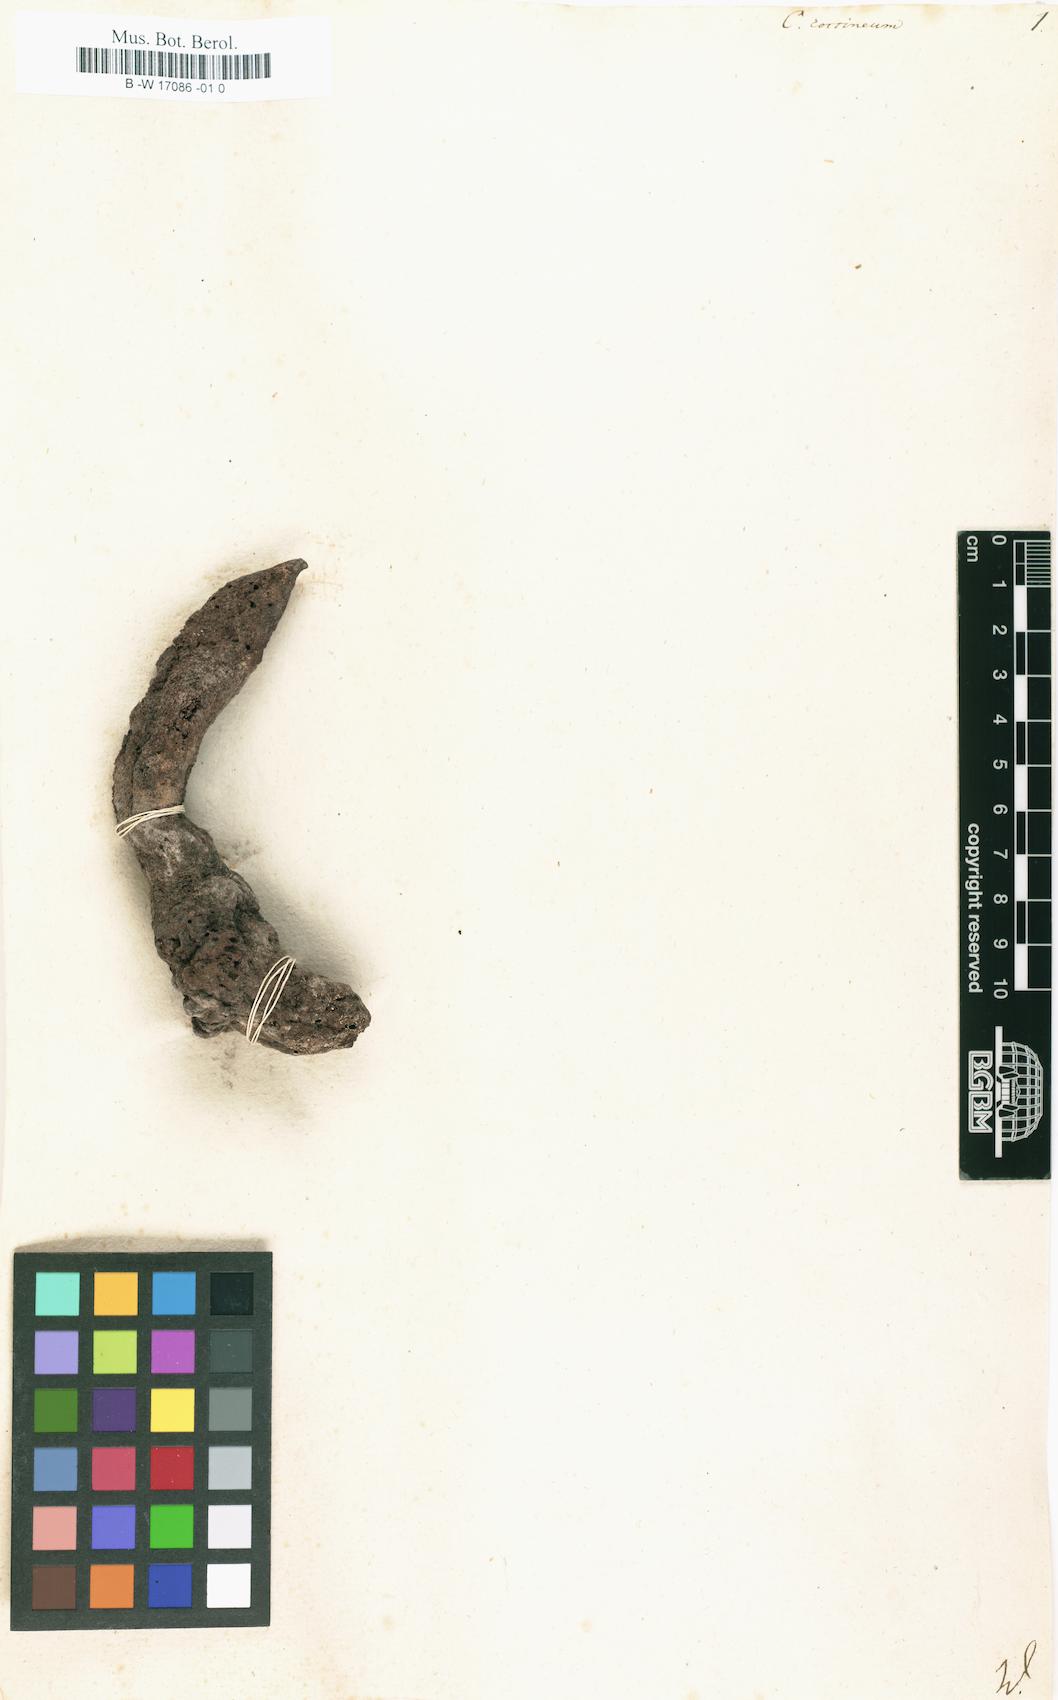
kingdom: Plantae
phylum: Tracheophyta
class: Magnoliopsida
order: Saxifragales
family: Cynomoriaceae
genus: Cynomorium
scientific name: Cynomorium coccineum
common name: Maltese-mushroom
